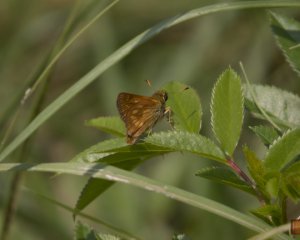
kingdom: Animalia
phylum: Arthropoda
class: Insecta
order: Lepidoptera
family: Hesperiidae
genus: Polites
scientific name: Polites
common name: Long Dash Skipper
